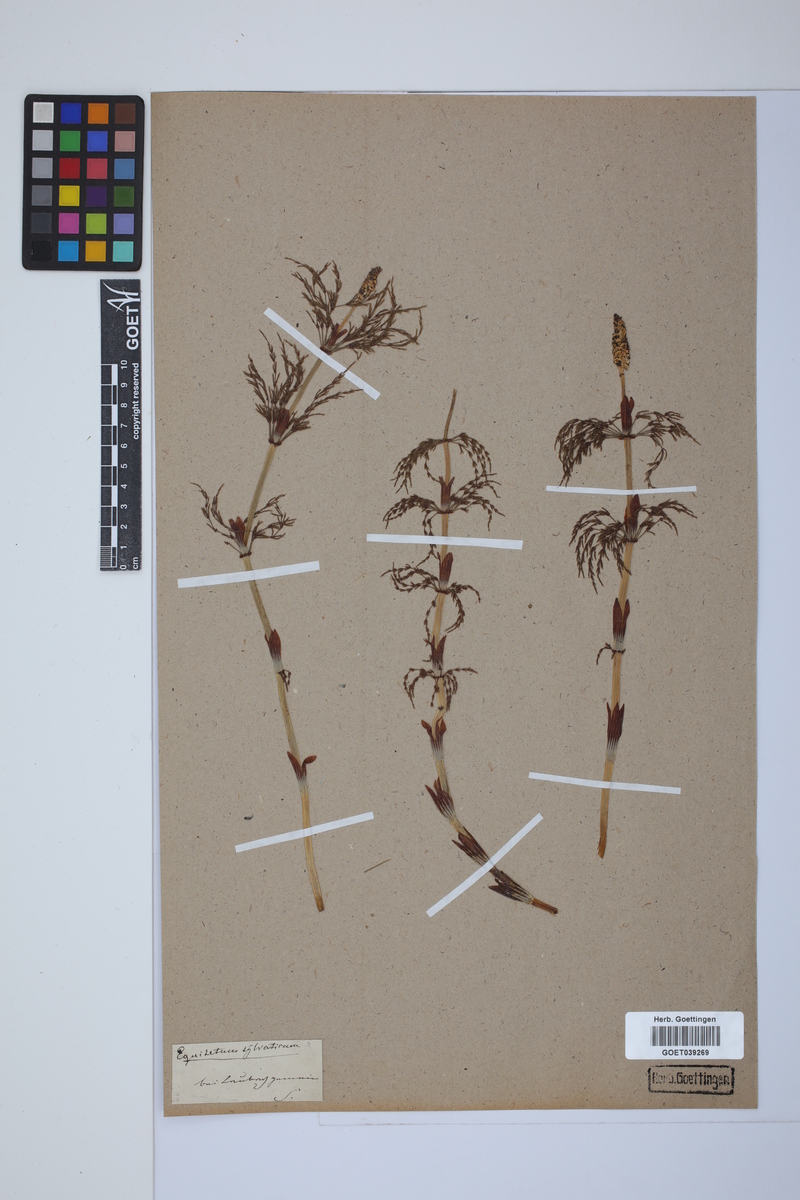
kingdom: Plantae
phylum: Tracheophyta
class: Polypodiopsida
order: Equisetales
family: Equisetaceae
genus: Equisetum
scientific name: Equisetum sylvaticum
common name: Wood horsetail
